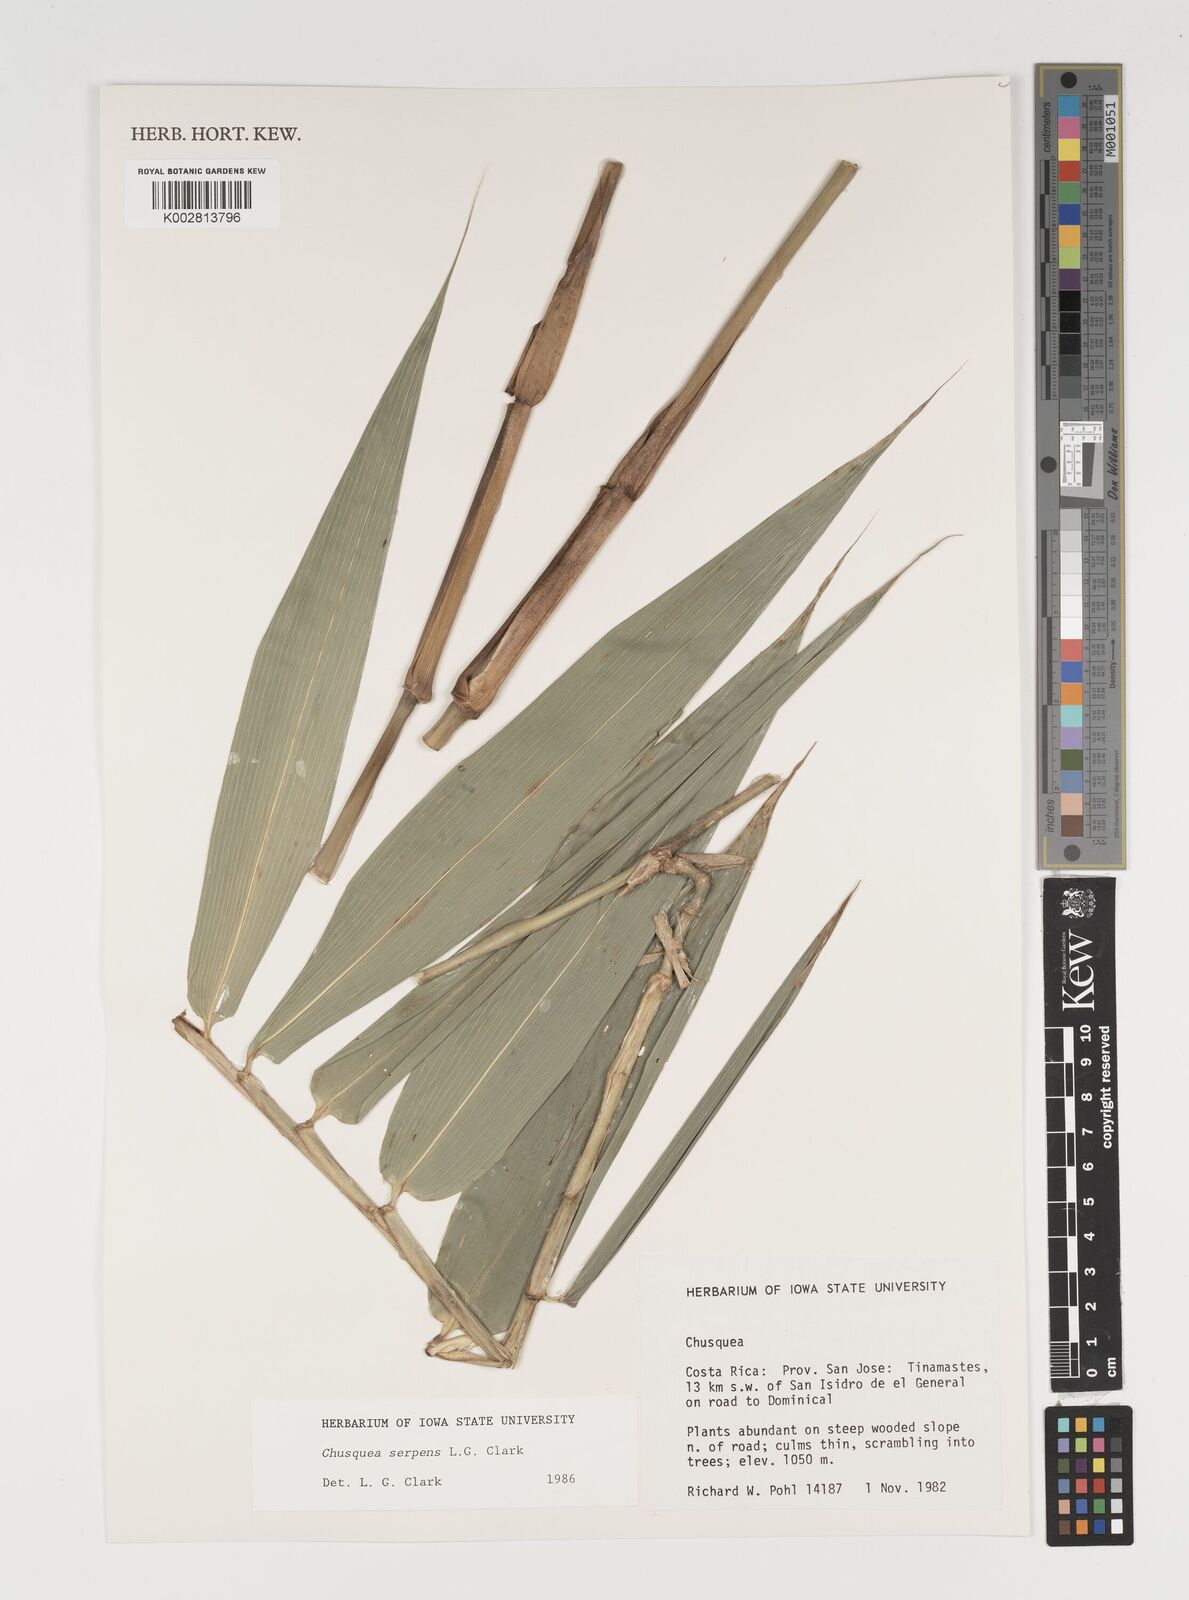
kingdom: Plantae
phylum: Tracheophyta
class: Liliopsida
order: Poales
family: Poaceae
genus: Chusquea
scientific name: Chusquea serpens
